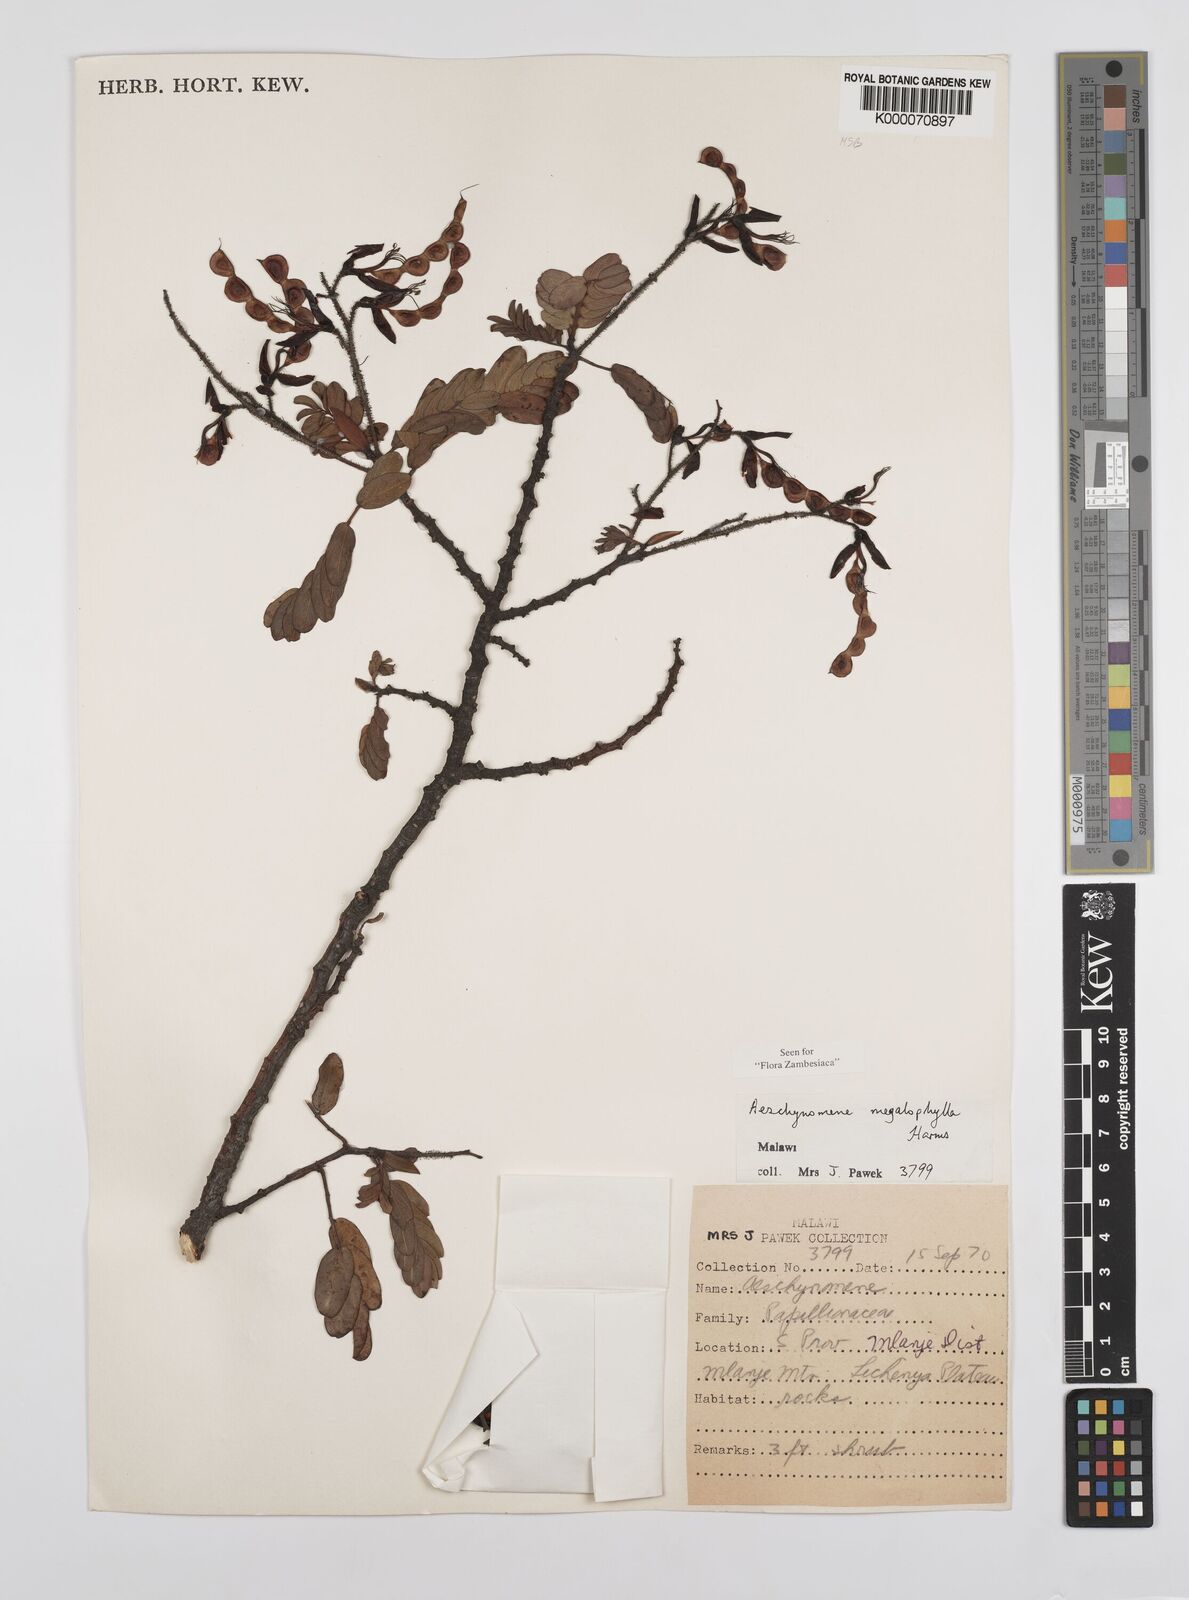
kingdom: Plantae
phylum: Tracheophyta
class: Magnoliopsida
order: Fabales
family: Fabaceae
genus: Aeschynomene
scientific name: Aeschynomene megalophylla
